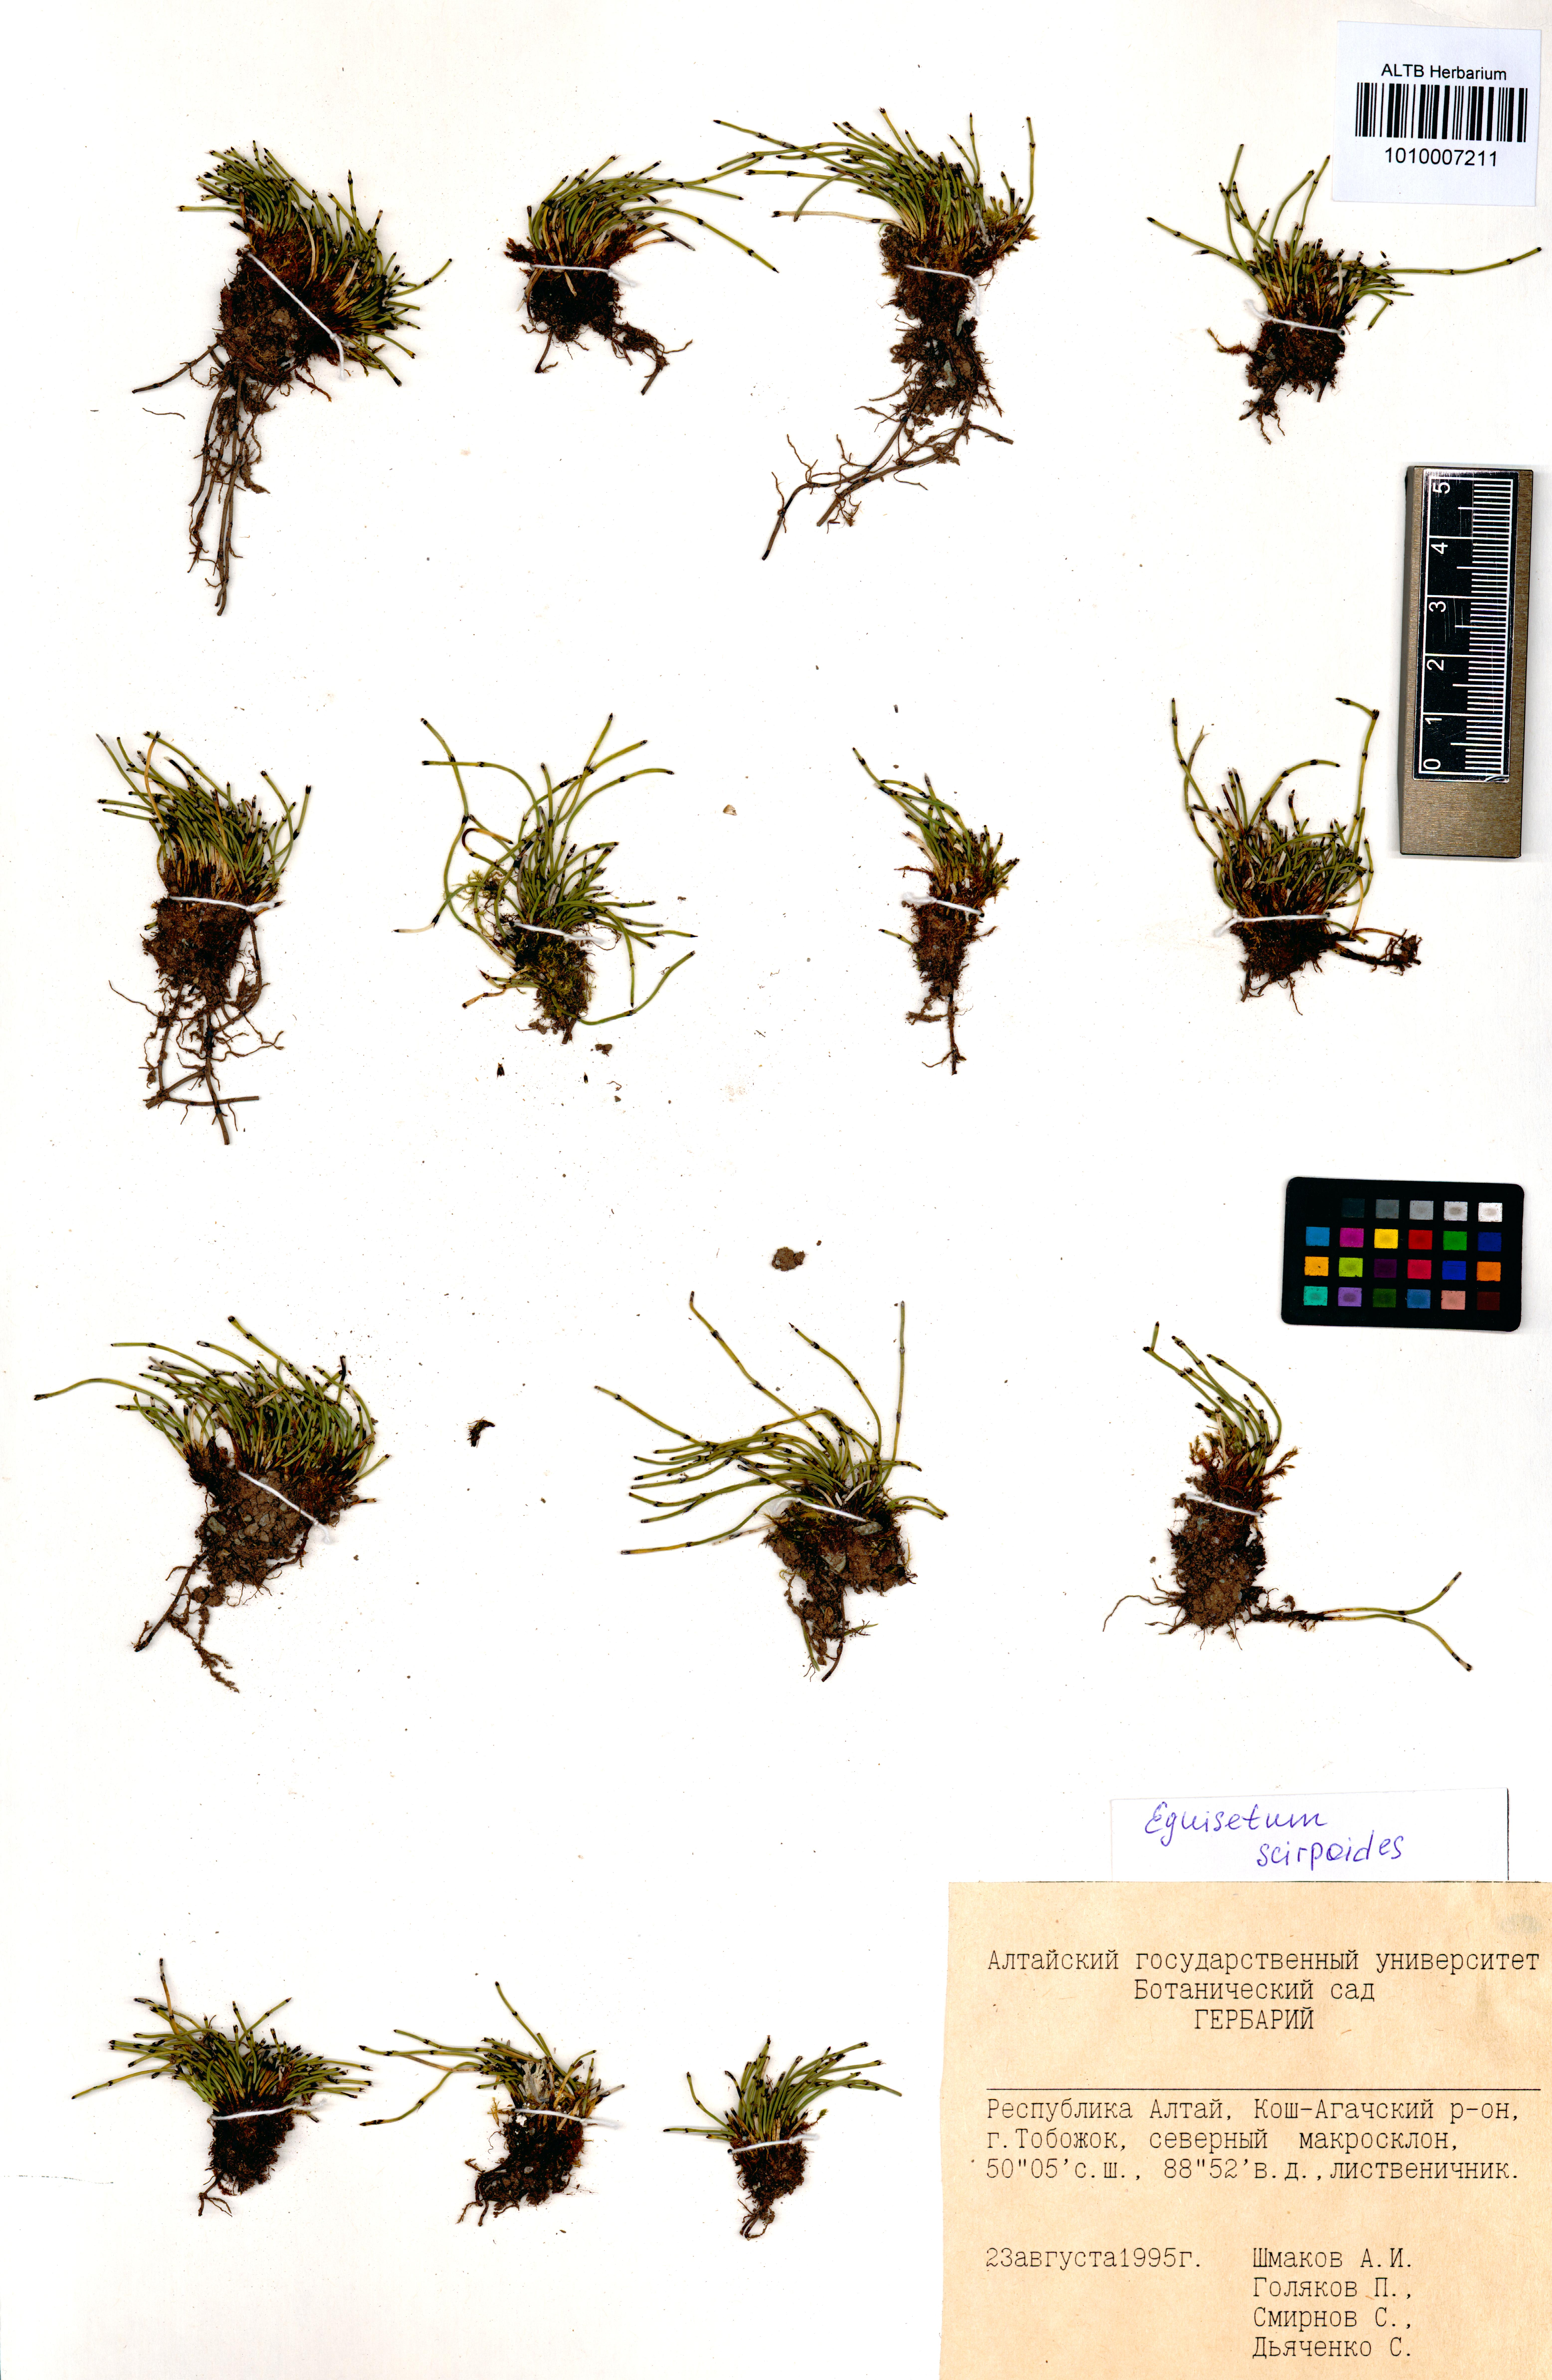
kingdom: Plantae
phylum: Tracheophyta
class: Polypodiopsida
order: Equisetales
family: Equisetaceae
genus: Equisetum
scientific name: Equisetum scirpoides
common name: Delicate horsetail
